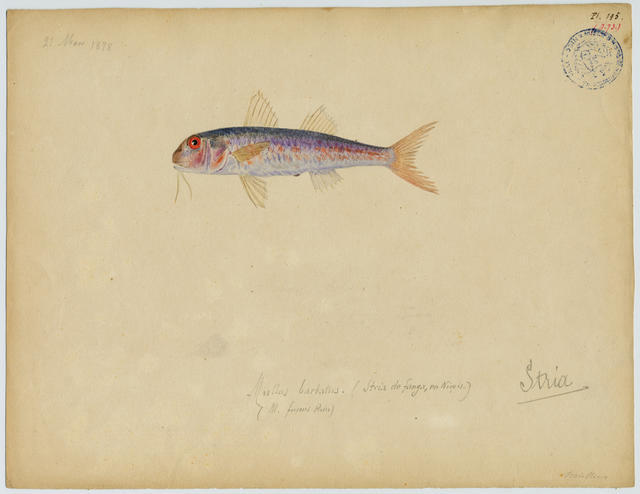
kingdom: Animalia
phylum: Chordata
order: Perciformes
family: Mullidae
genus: Mullus
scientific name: Mullus barbatus
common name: Blunt-snouted mullet
